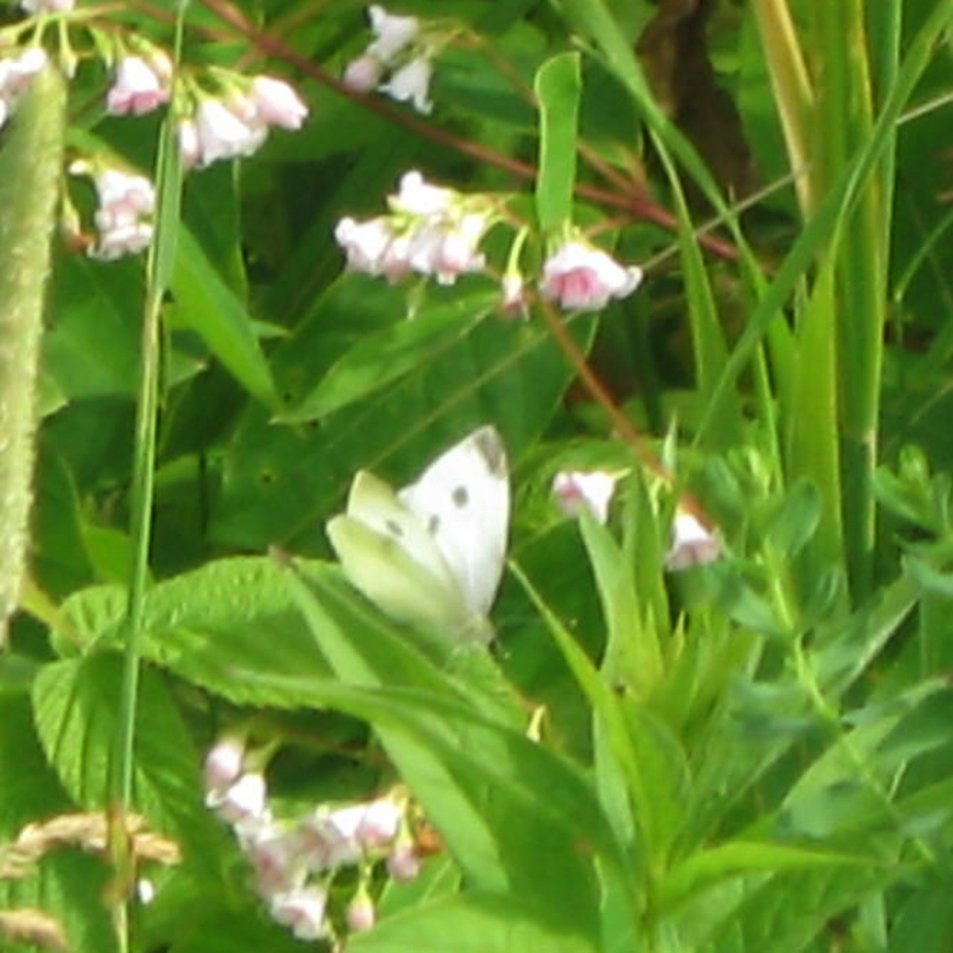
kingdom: Animalia
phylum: Arthropoda
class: Insecta
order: Lepidoptera
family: Pieridae
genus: Pieris
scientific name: Pieris rapae
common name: Cabbage White
